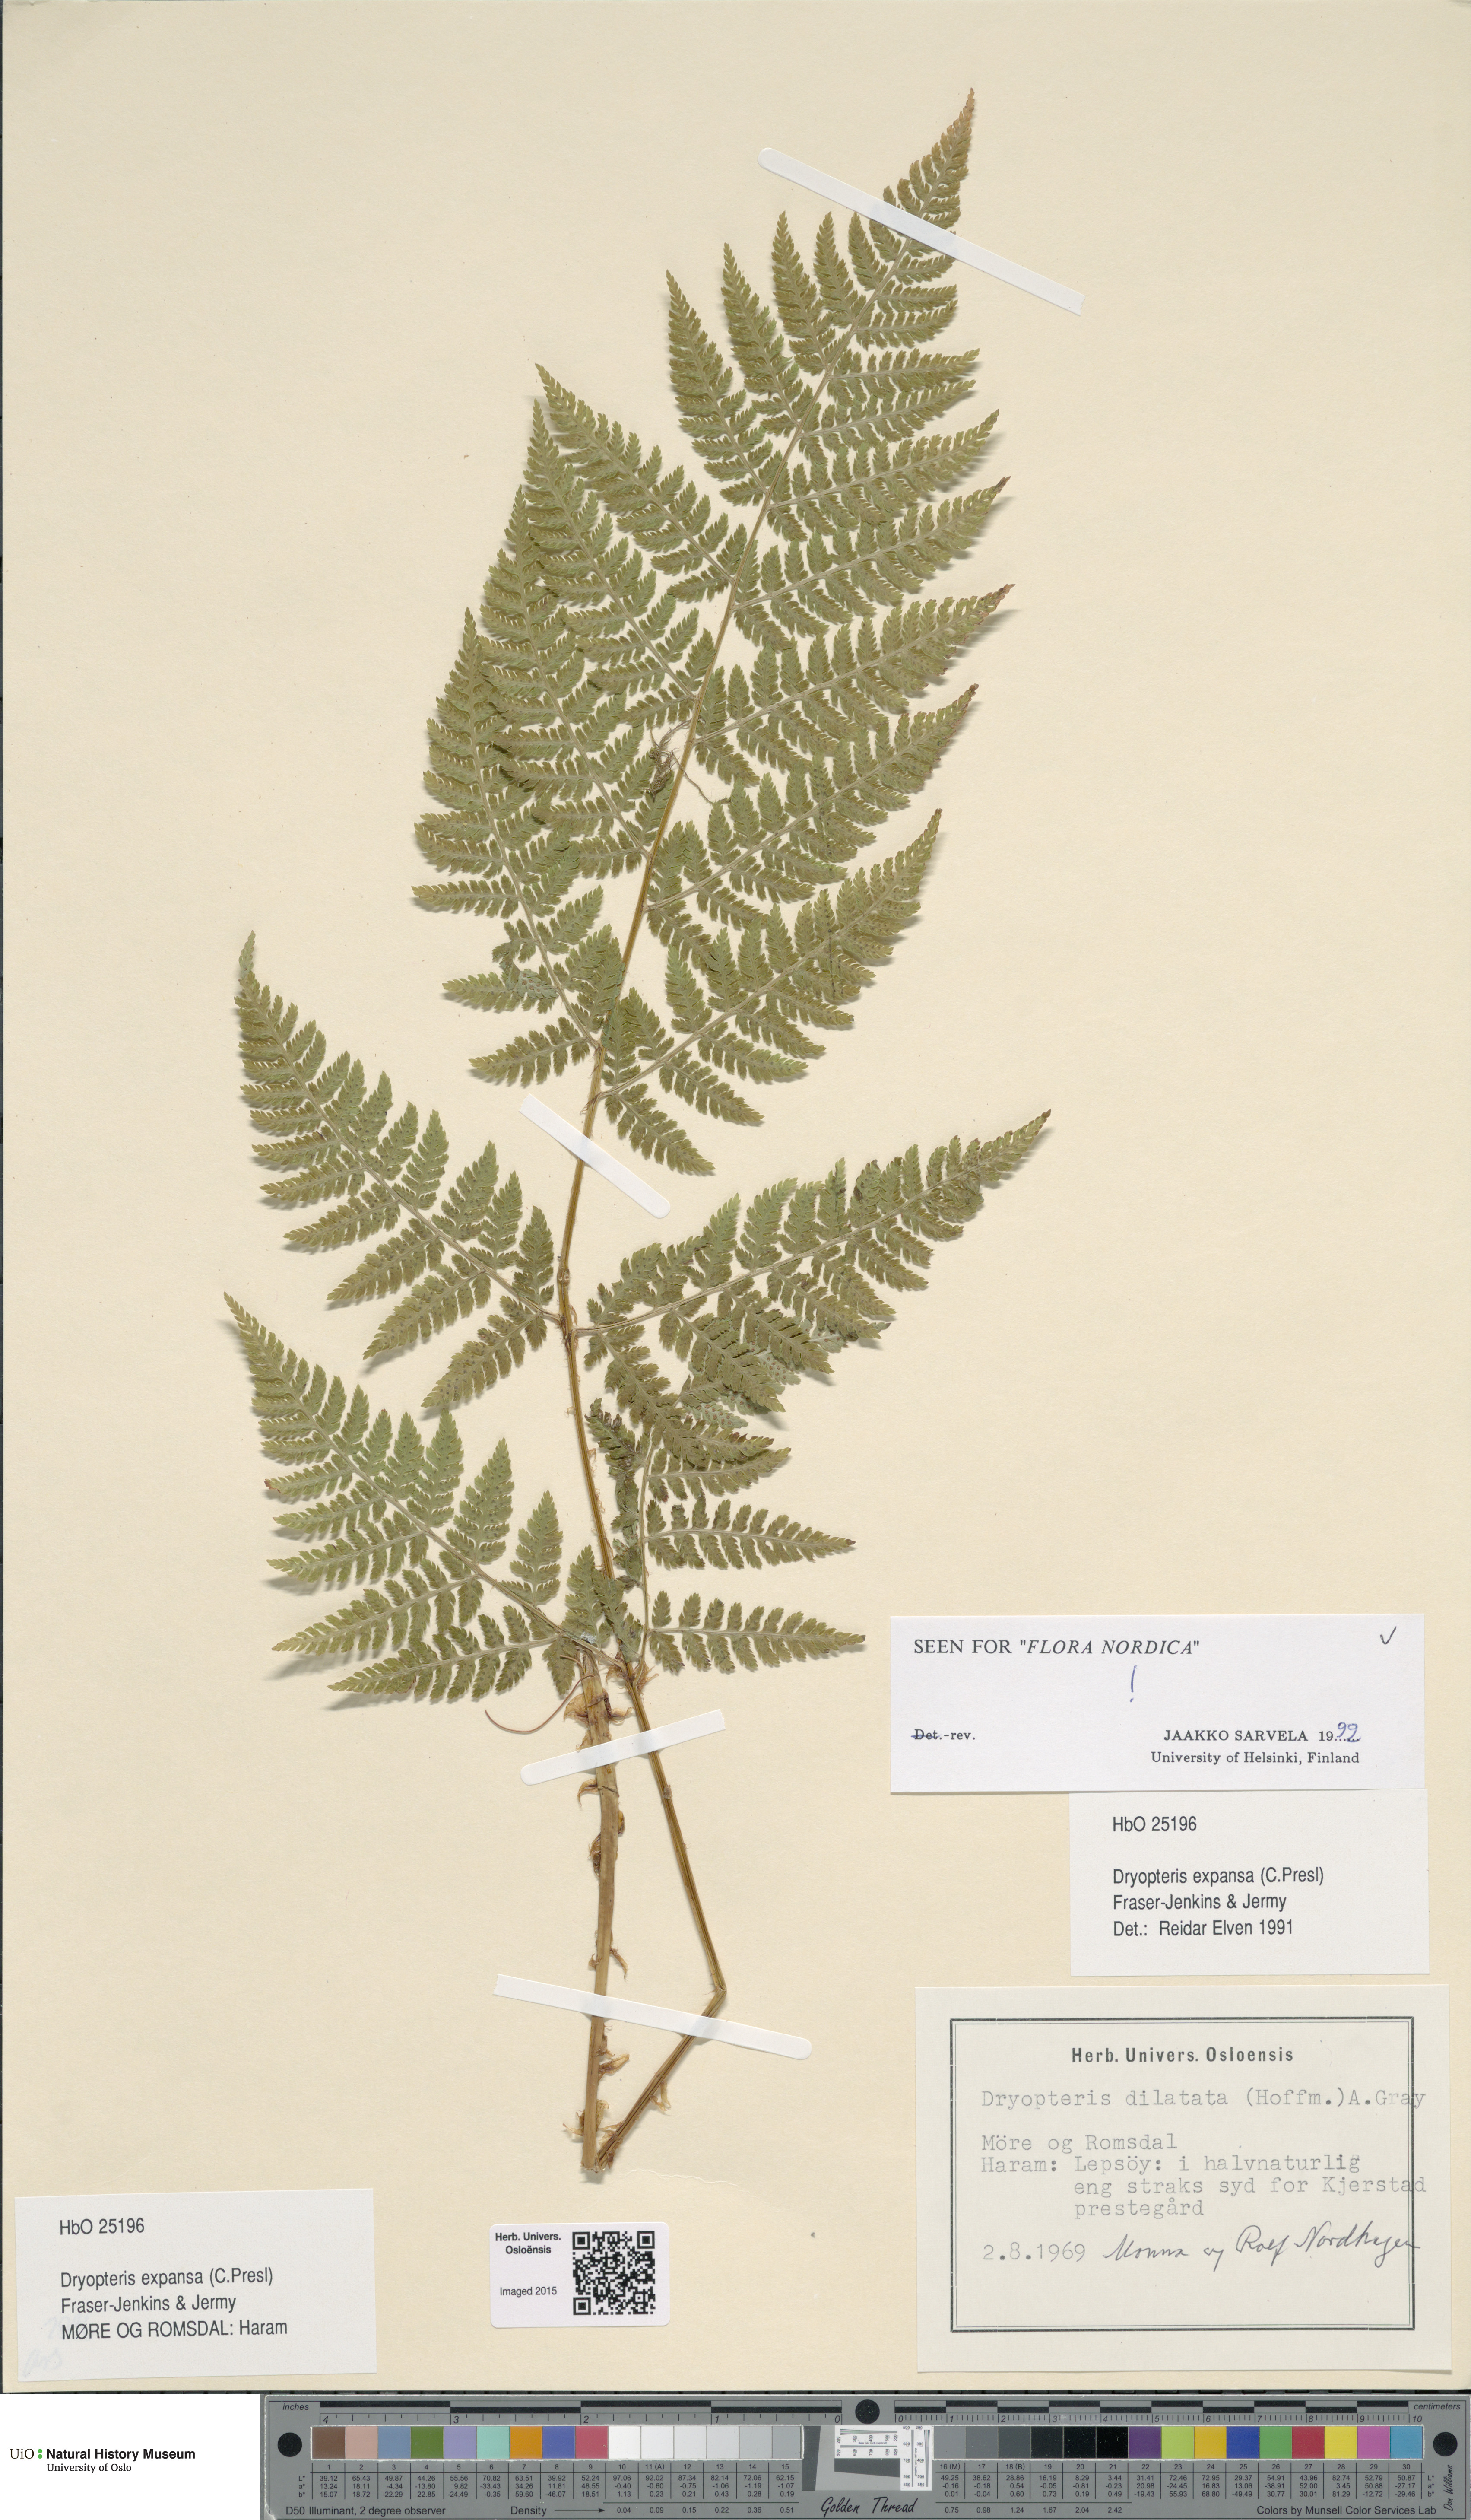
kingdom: Plantae
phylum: Tracheophyta
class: Polypodiopsida
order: Polypodiales
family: Dryopteridaceae
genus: Dryopteris
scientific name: Dryopteris expansa
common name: Northern buckler fern
